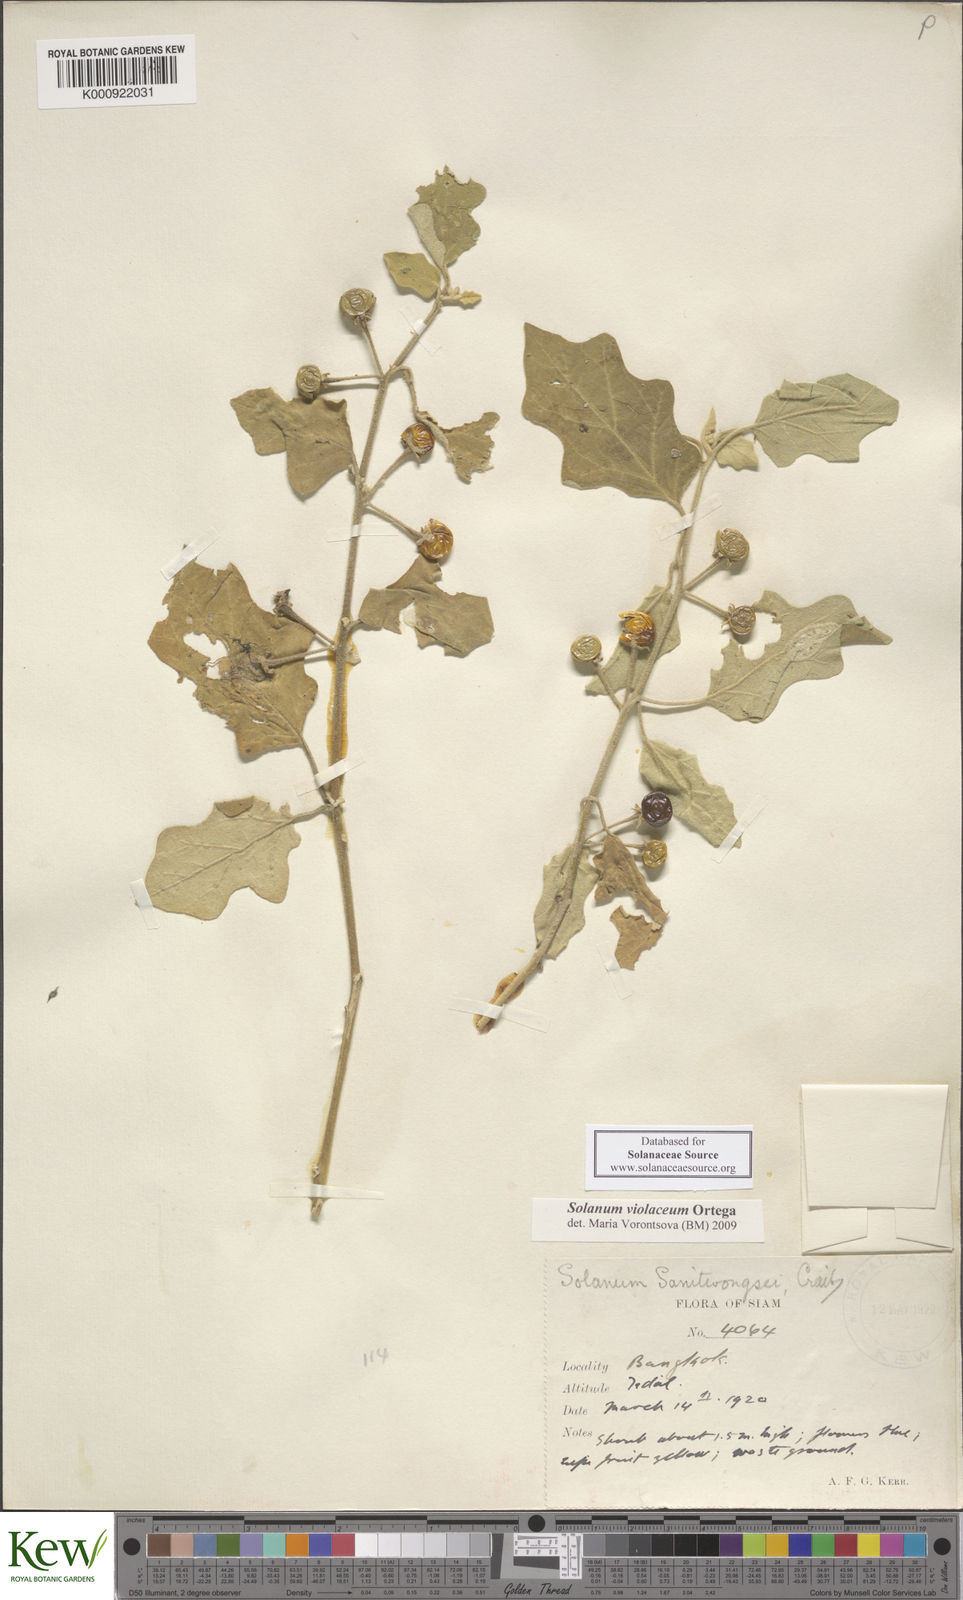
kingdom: Plantae
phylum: Tracheophyta
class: Magnoliopsida
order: Solanales
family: Solanaceae
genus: Solanum
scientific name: Solanum violaceum
